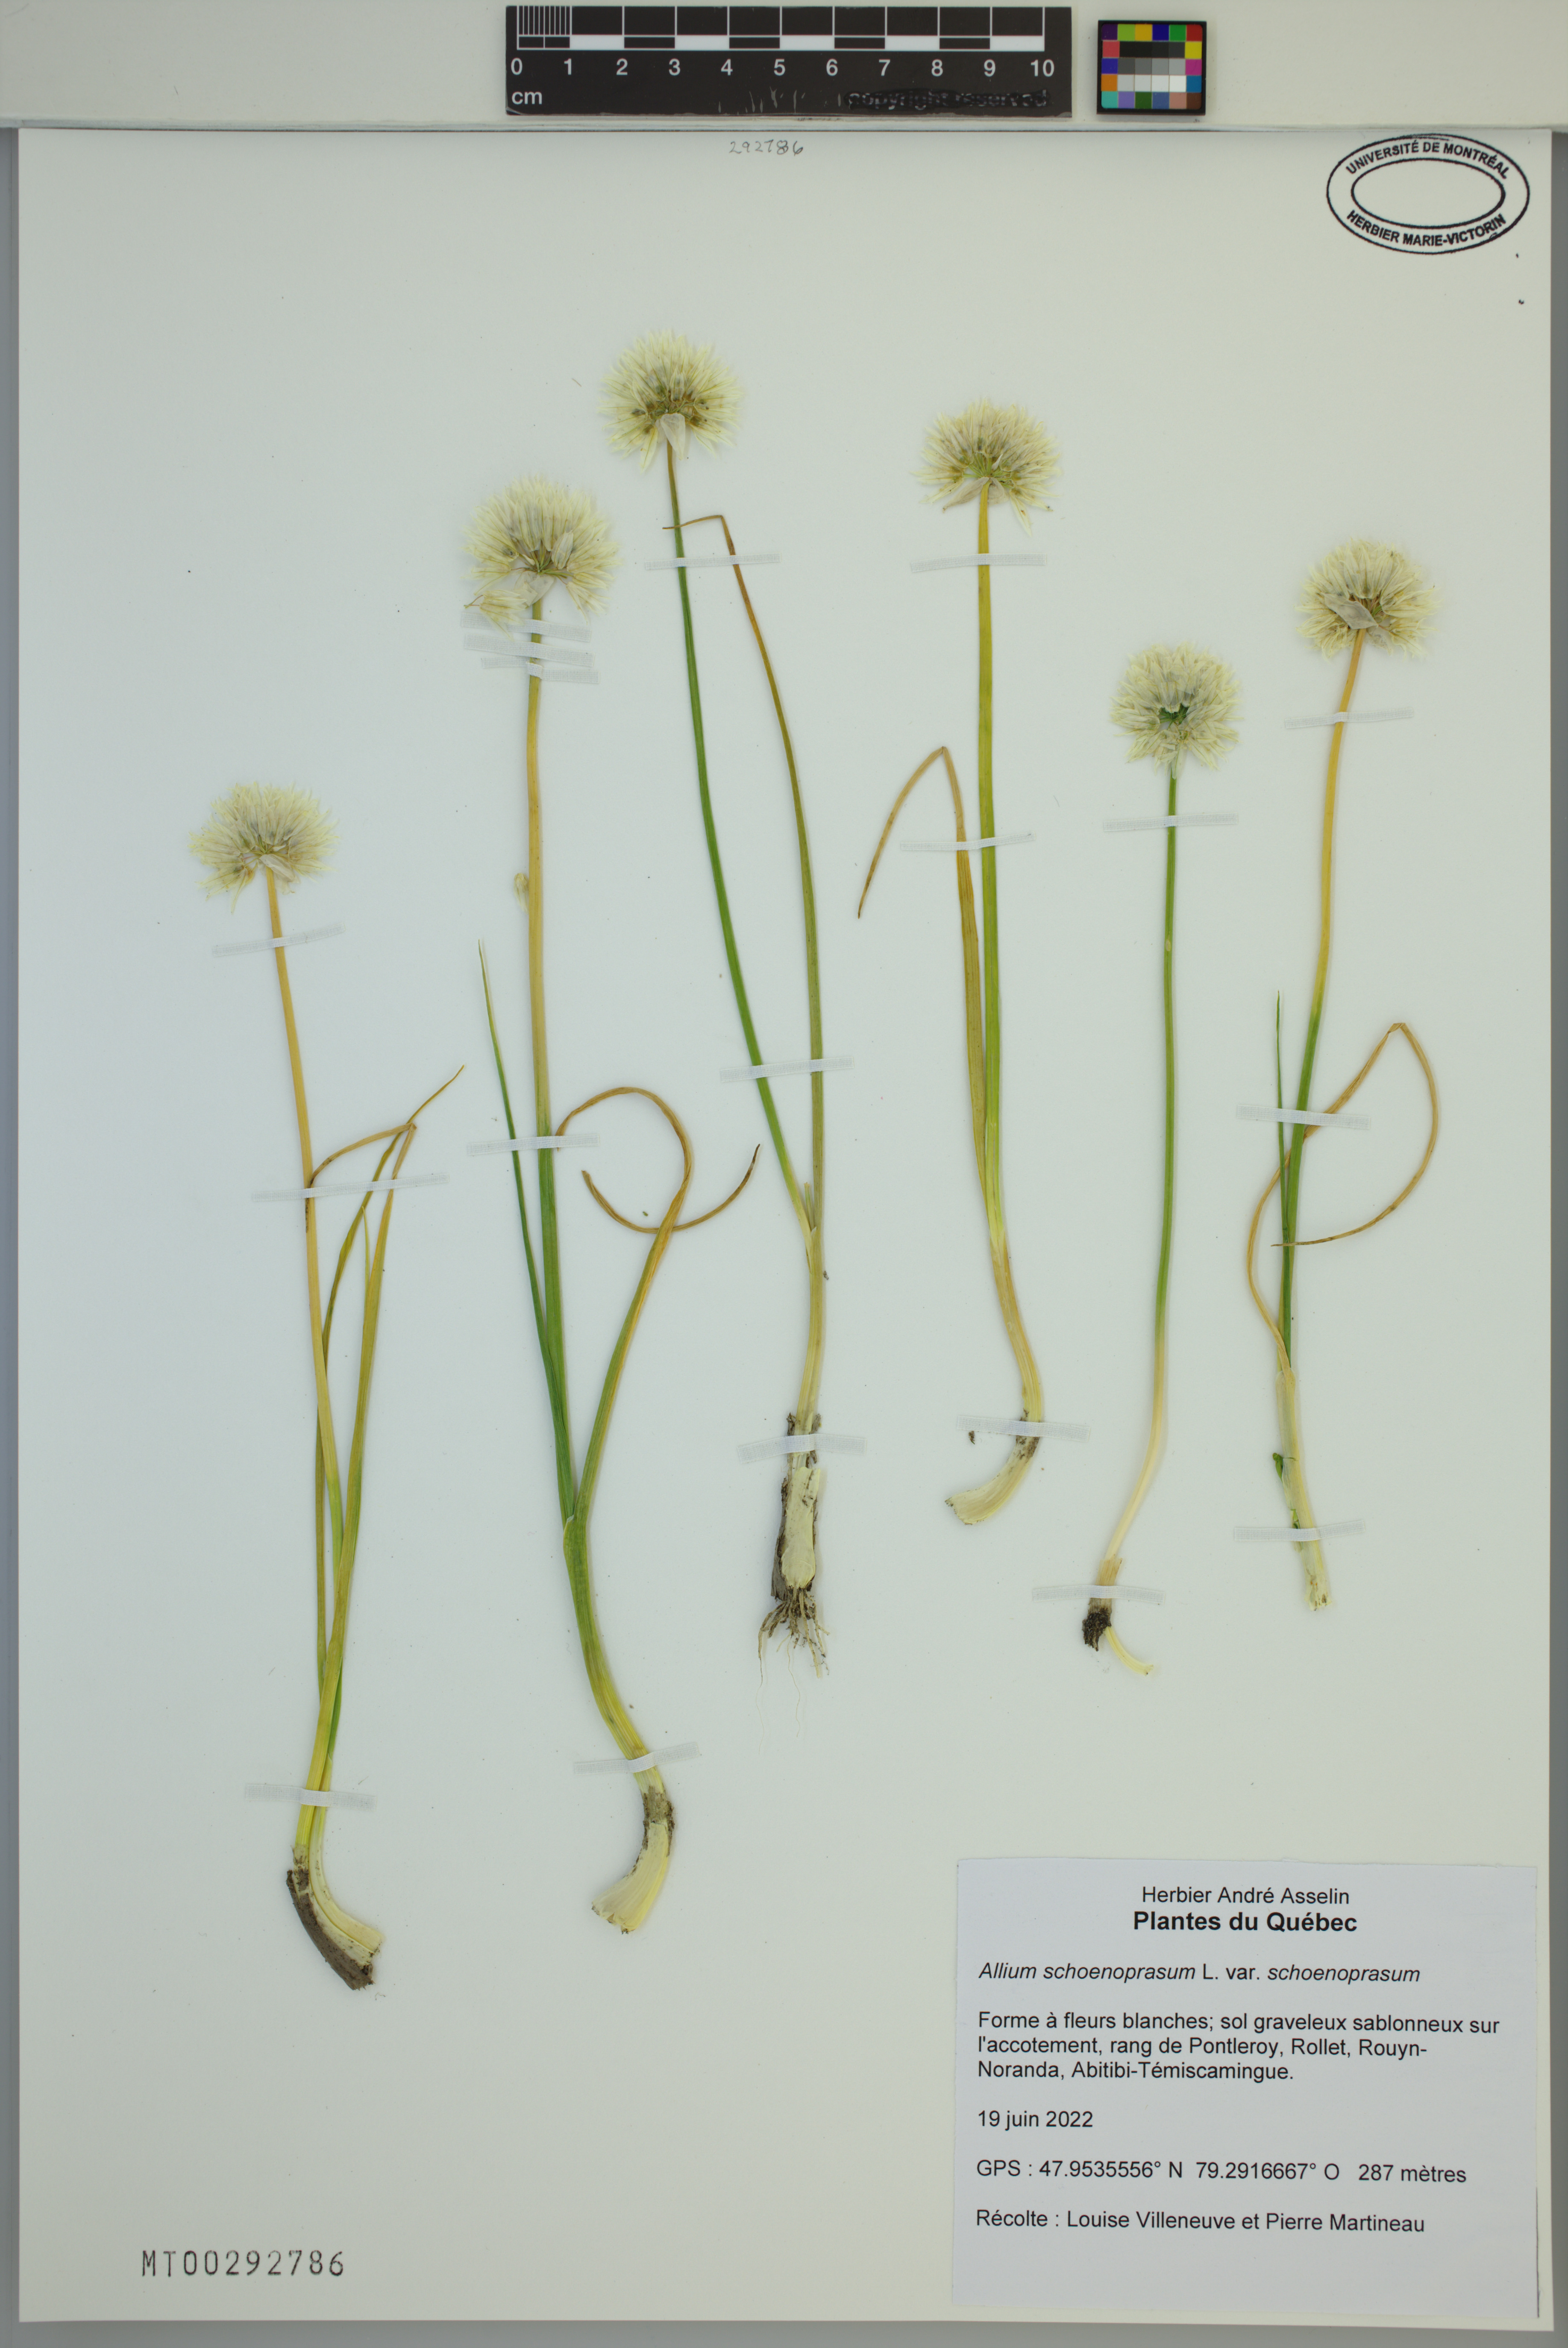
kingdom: Plantae
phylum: Tracheophyta
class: Liliopsida
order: Asparagales
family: Amaryllidaceae
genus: Allium
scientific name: Allium schoenoprasum
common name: Chives
